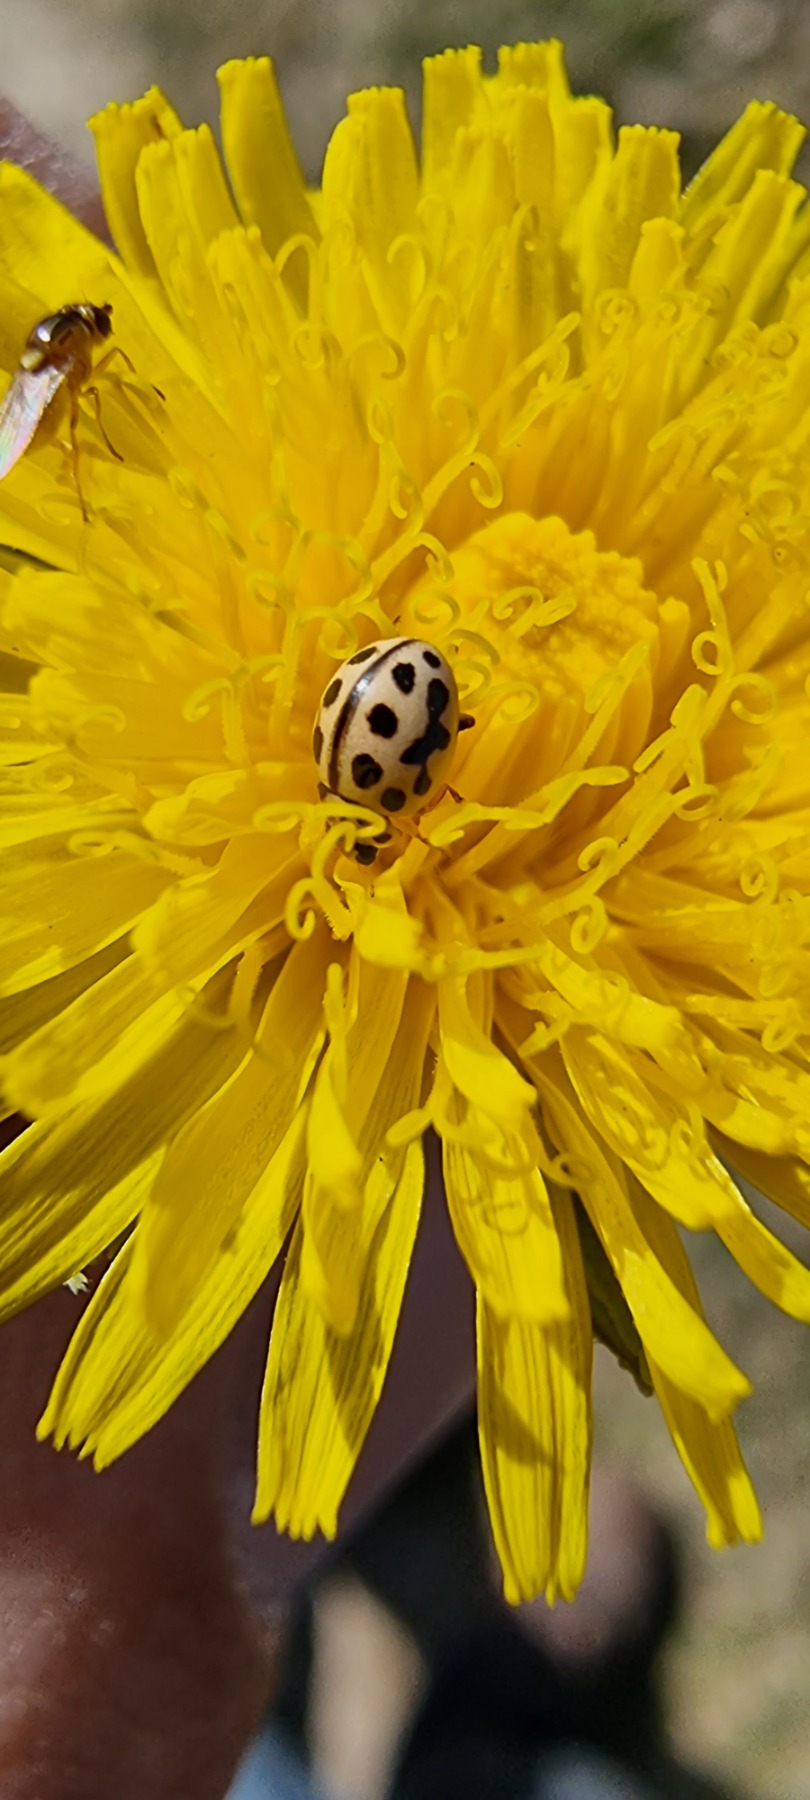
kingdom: Animalia
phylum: Arthropoda
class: Insecta
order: Coleoptera
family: Coccinellidae
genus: Tytthaspis
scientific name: Tytthaspis sedecimpunctata
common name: Sekstenprikket mariehøne
